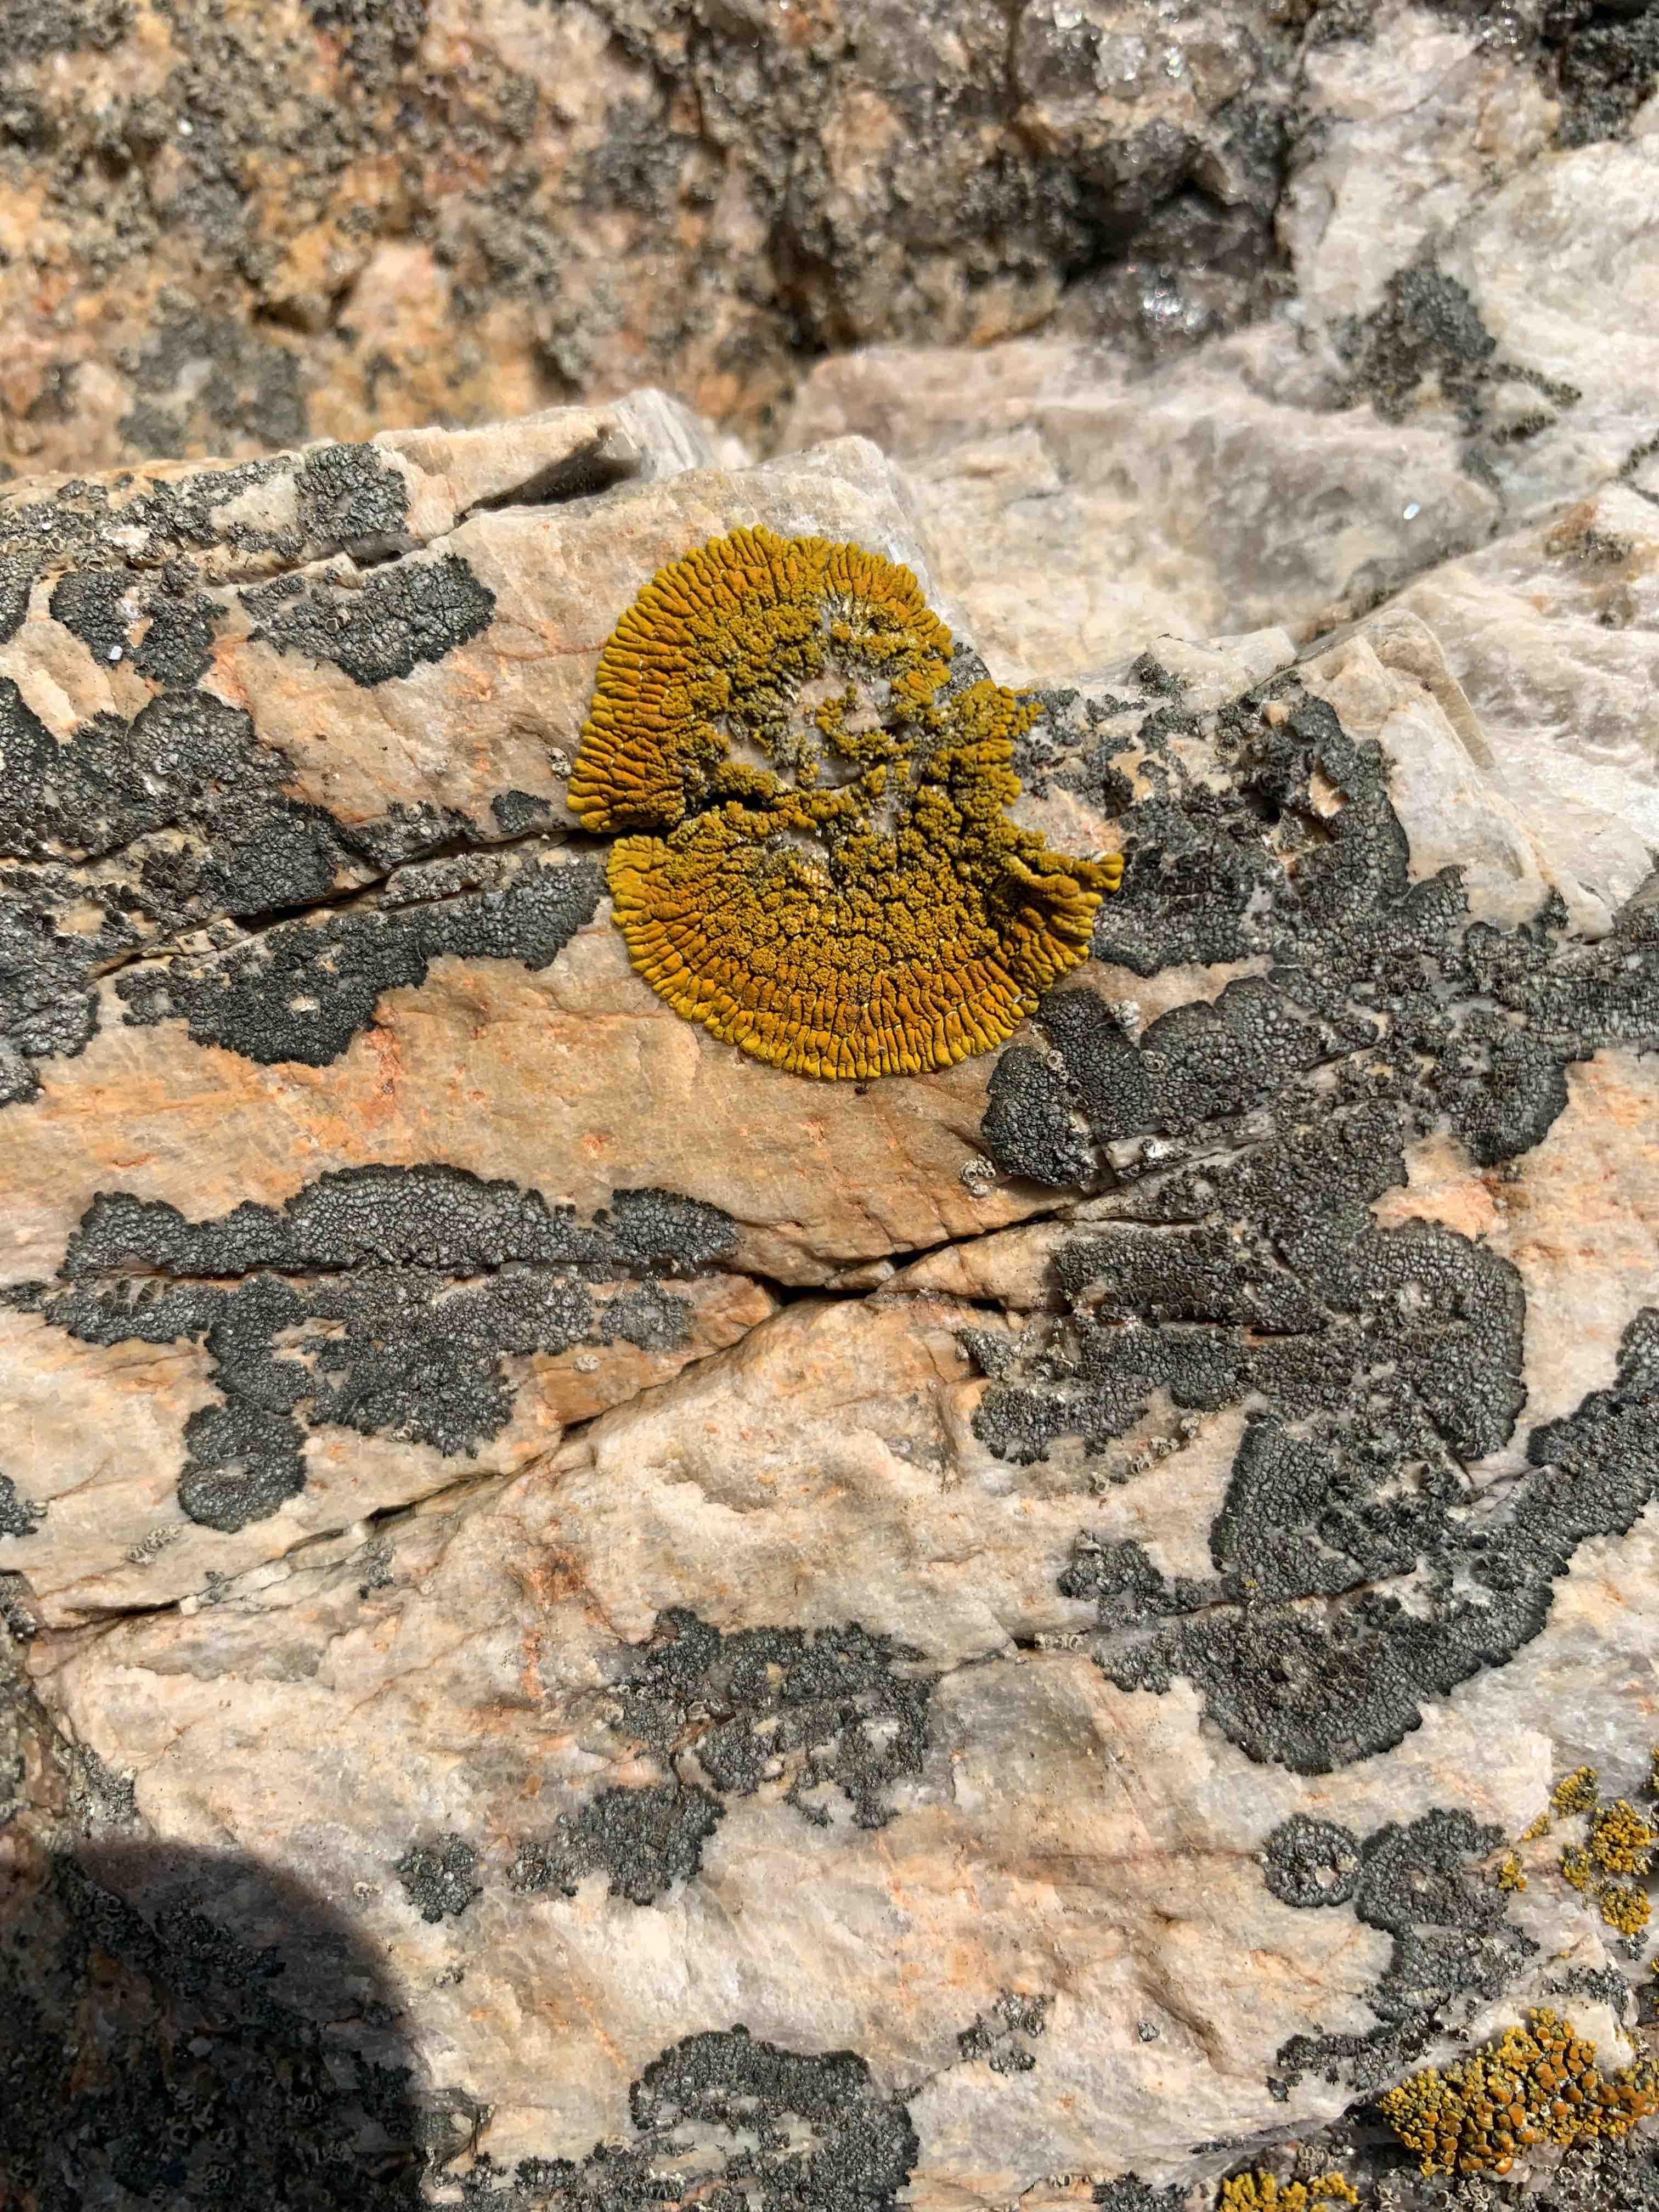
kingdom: Fungi
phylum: Ascomycota
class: Lecanoromycetes
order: Teloschistales
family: Teloschistaceae
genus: Verrucoplaca
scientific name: Verrucoplaca verruculifera
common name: koldkyst-orangelav
